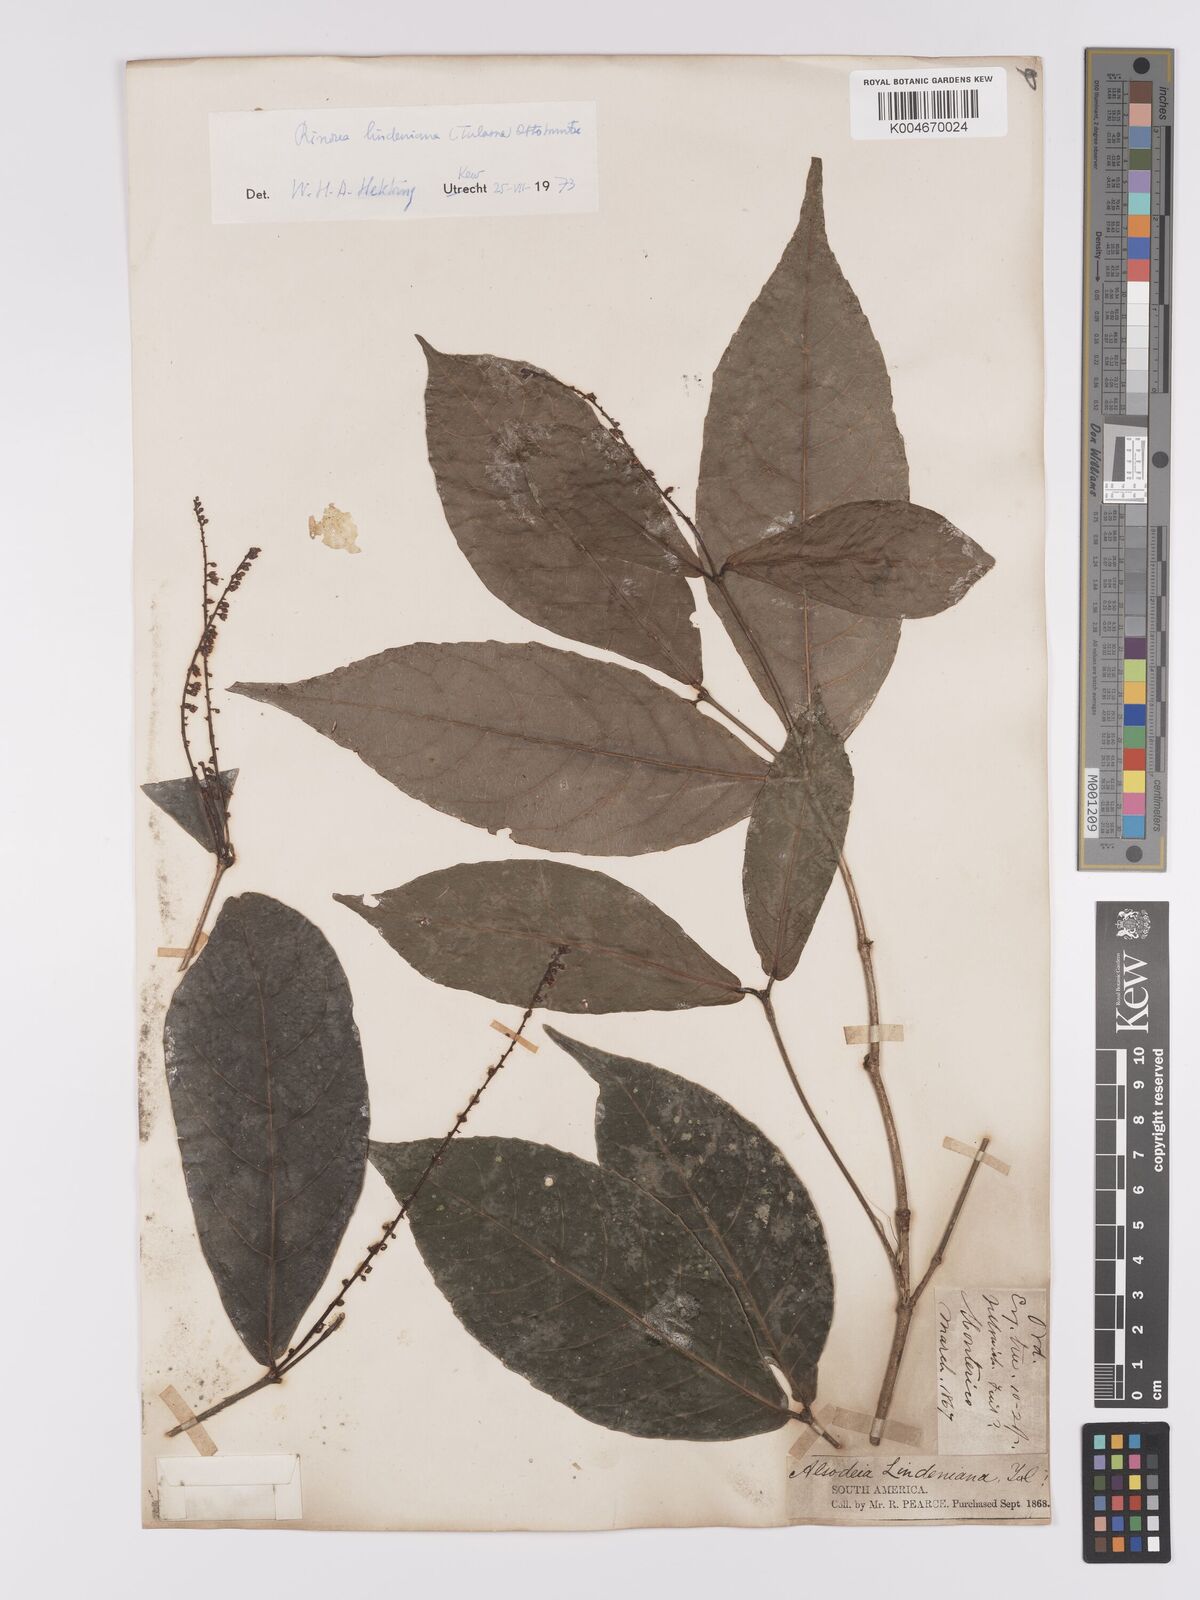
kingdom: Plantae
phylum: Tracheophyta
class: Magnoliopsida
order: Malpighiales
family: Violaceae
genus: Rinorea
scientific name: Rinorea lindeniana
